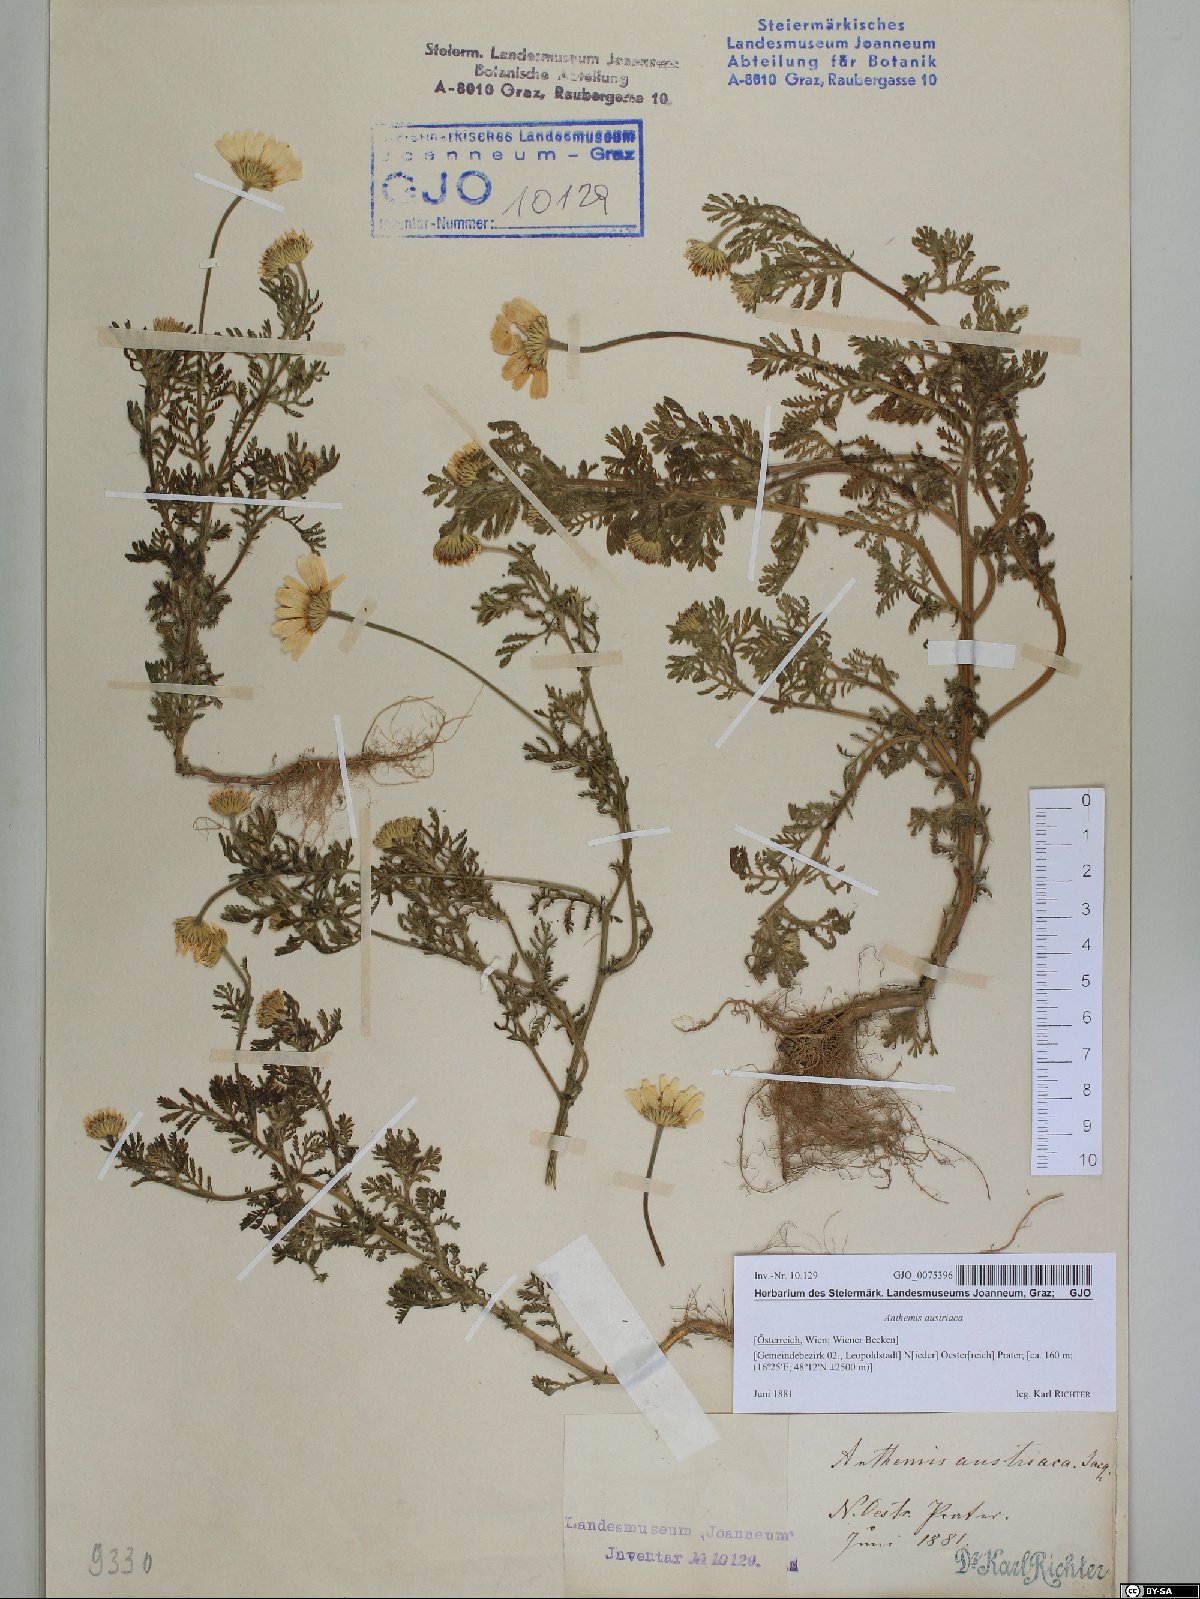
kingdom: Plantae
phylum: Tracheophyta
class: Magnoliopsida
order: Asterales
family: Asteraceae
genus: Cota
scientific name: Cota austriaca
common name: Austrian chamomile
